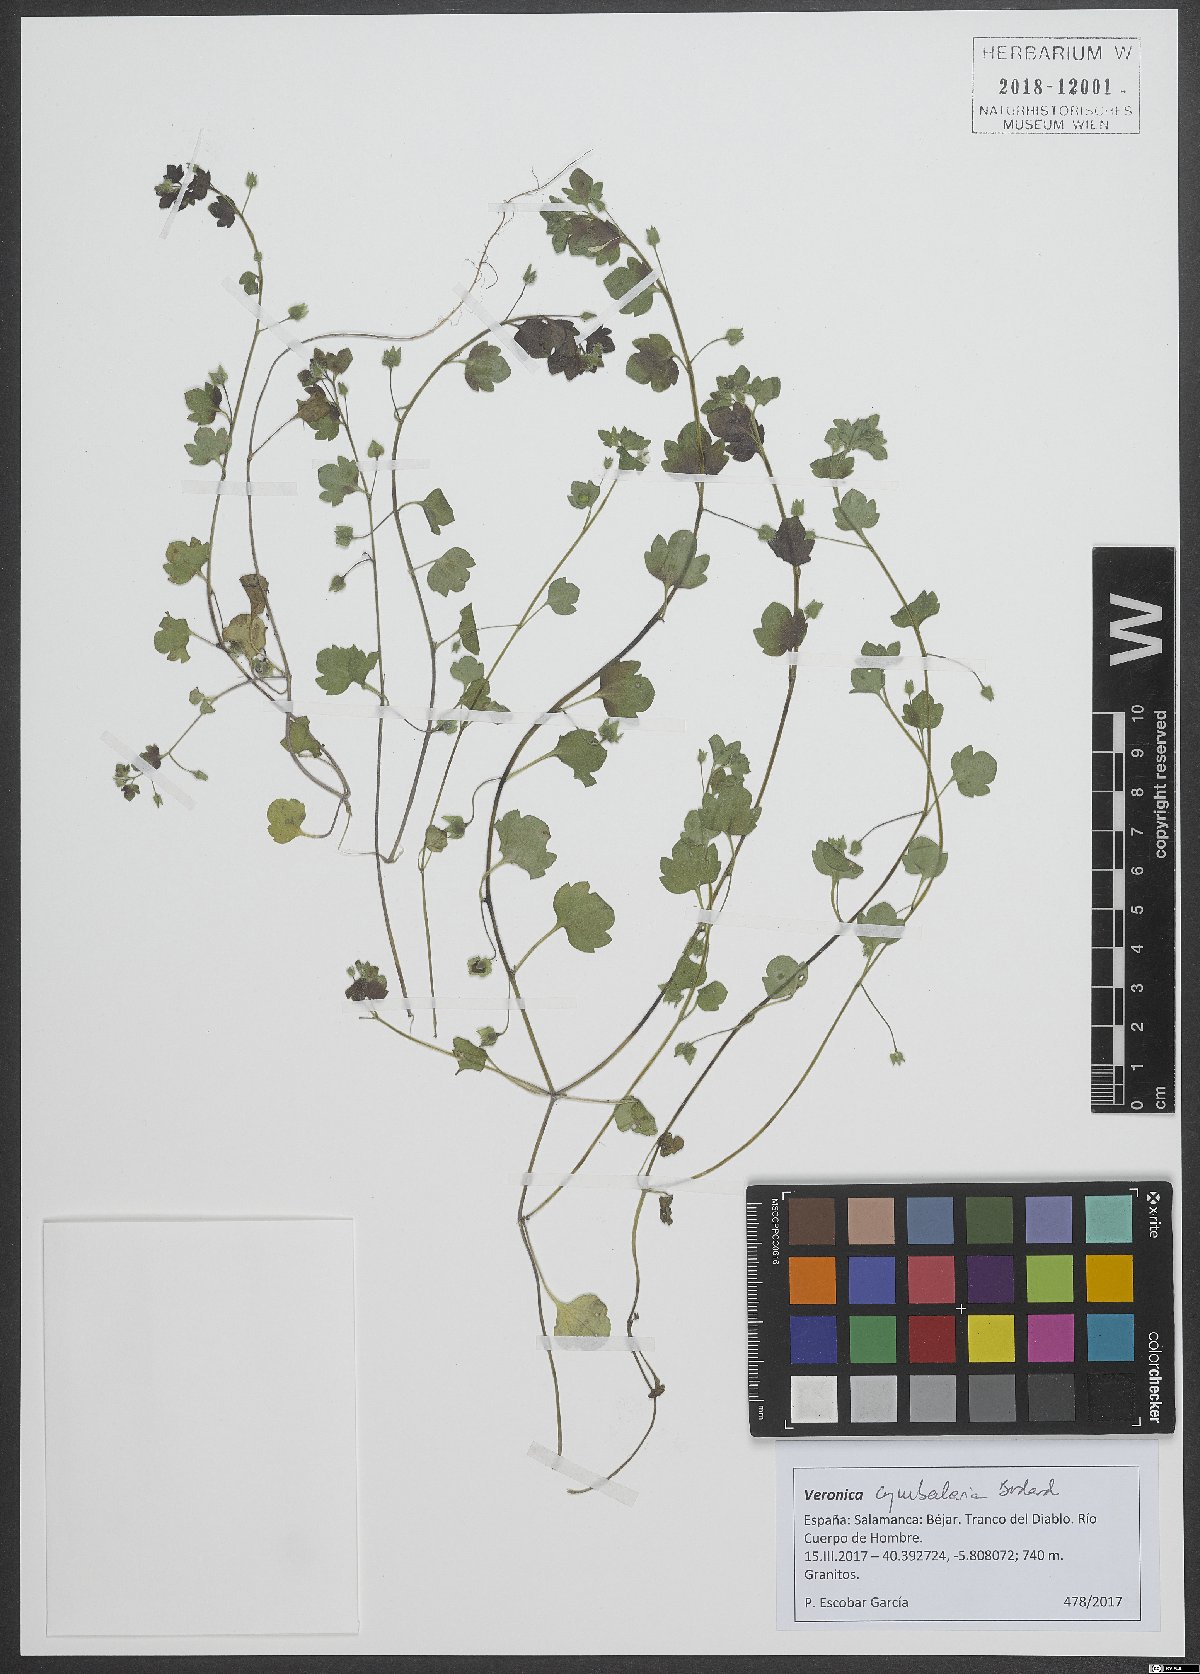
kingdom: Plantae
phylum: Tracheophyta
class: Magnoliopsida
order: Lamiales
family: Plantaginaceae
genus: Veronica
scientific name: Veronica cymbalaria
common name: Pale speedwell
